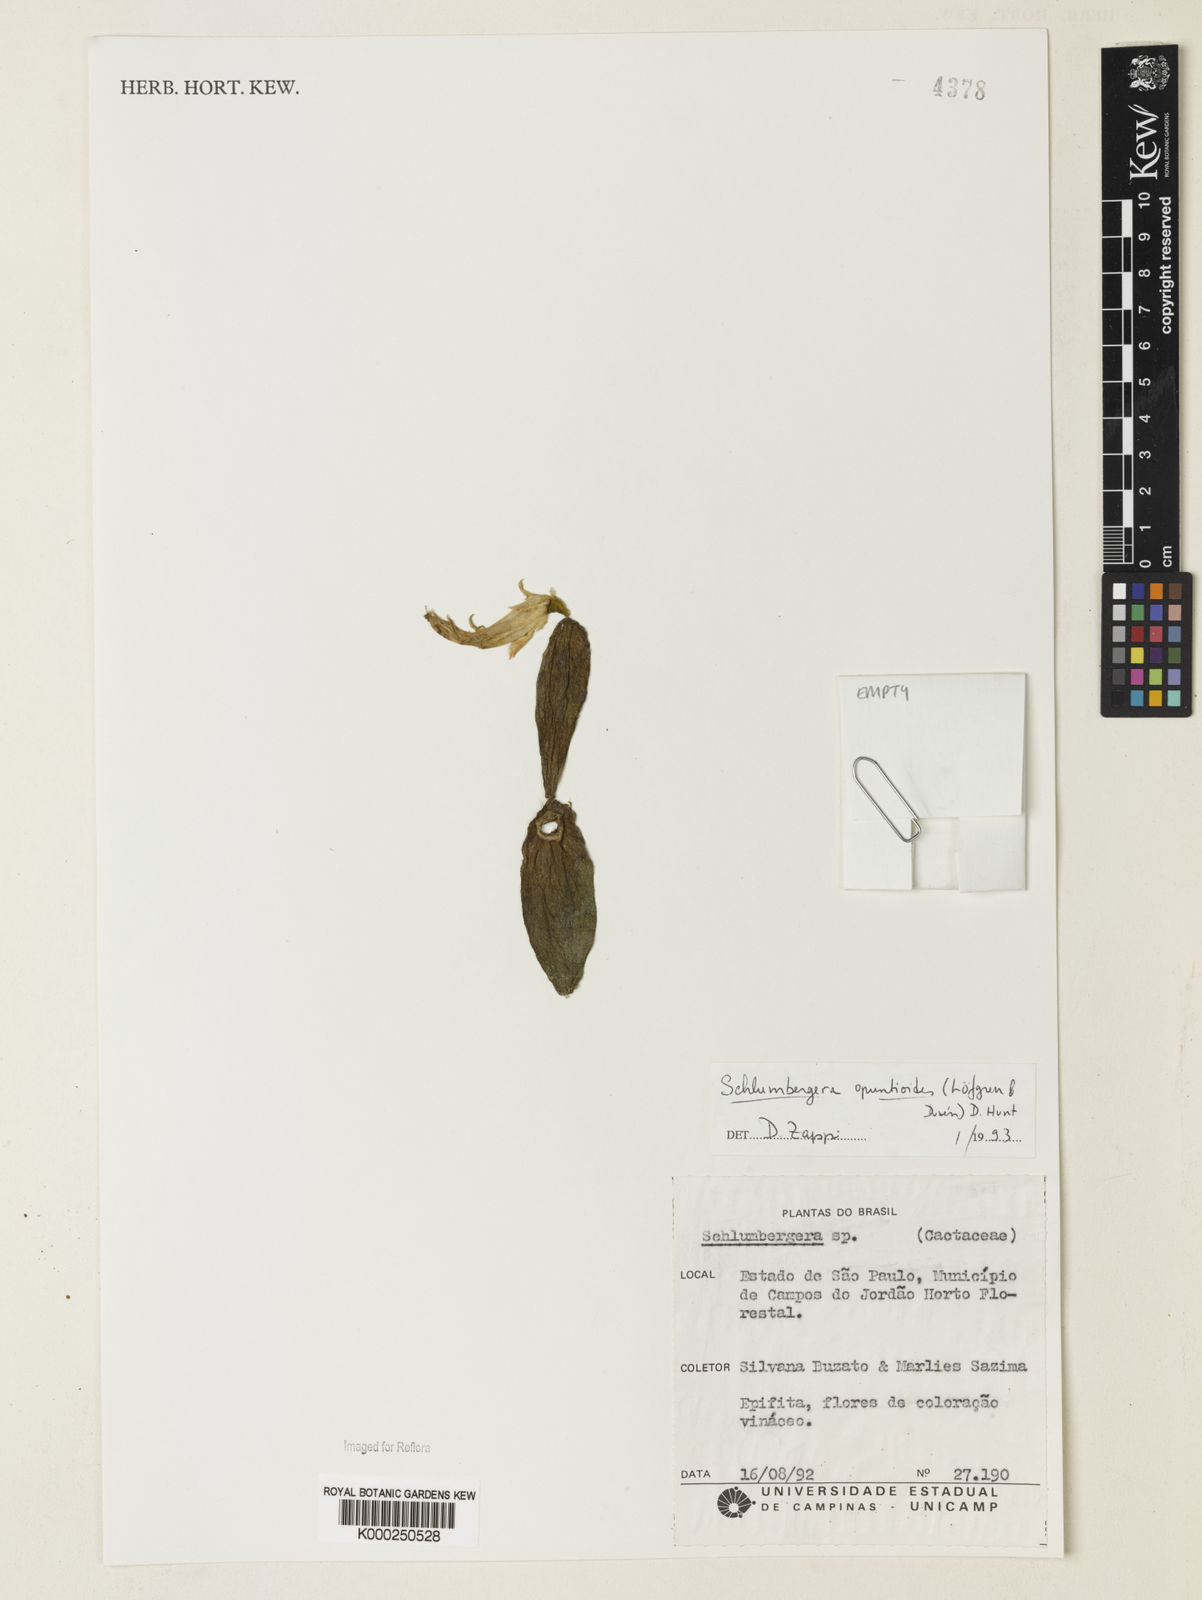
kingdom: Plantae
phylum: Tracheophyta
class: Magnoliopsida
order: Caryophyllales
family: Cactaceae
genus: Schlumbergera
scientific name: Schlumbergera opuntioides
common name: Christmas cactus
